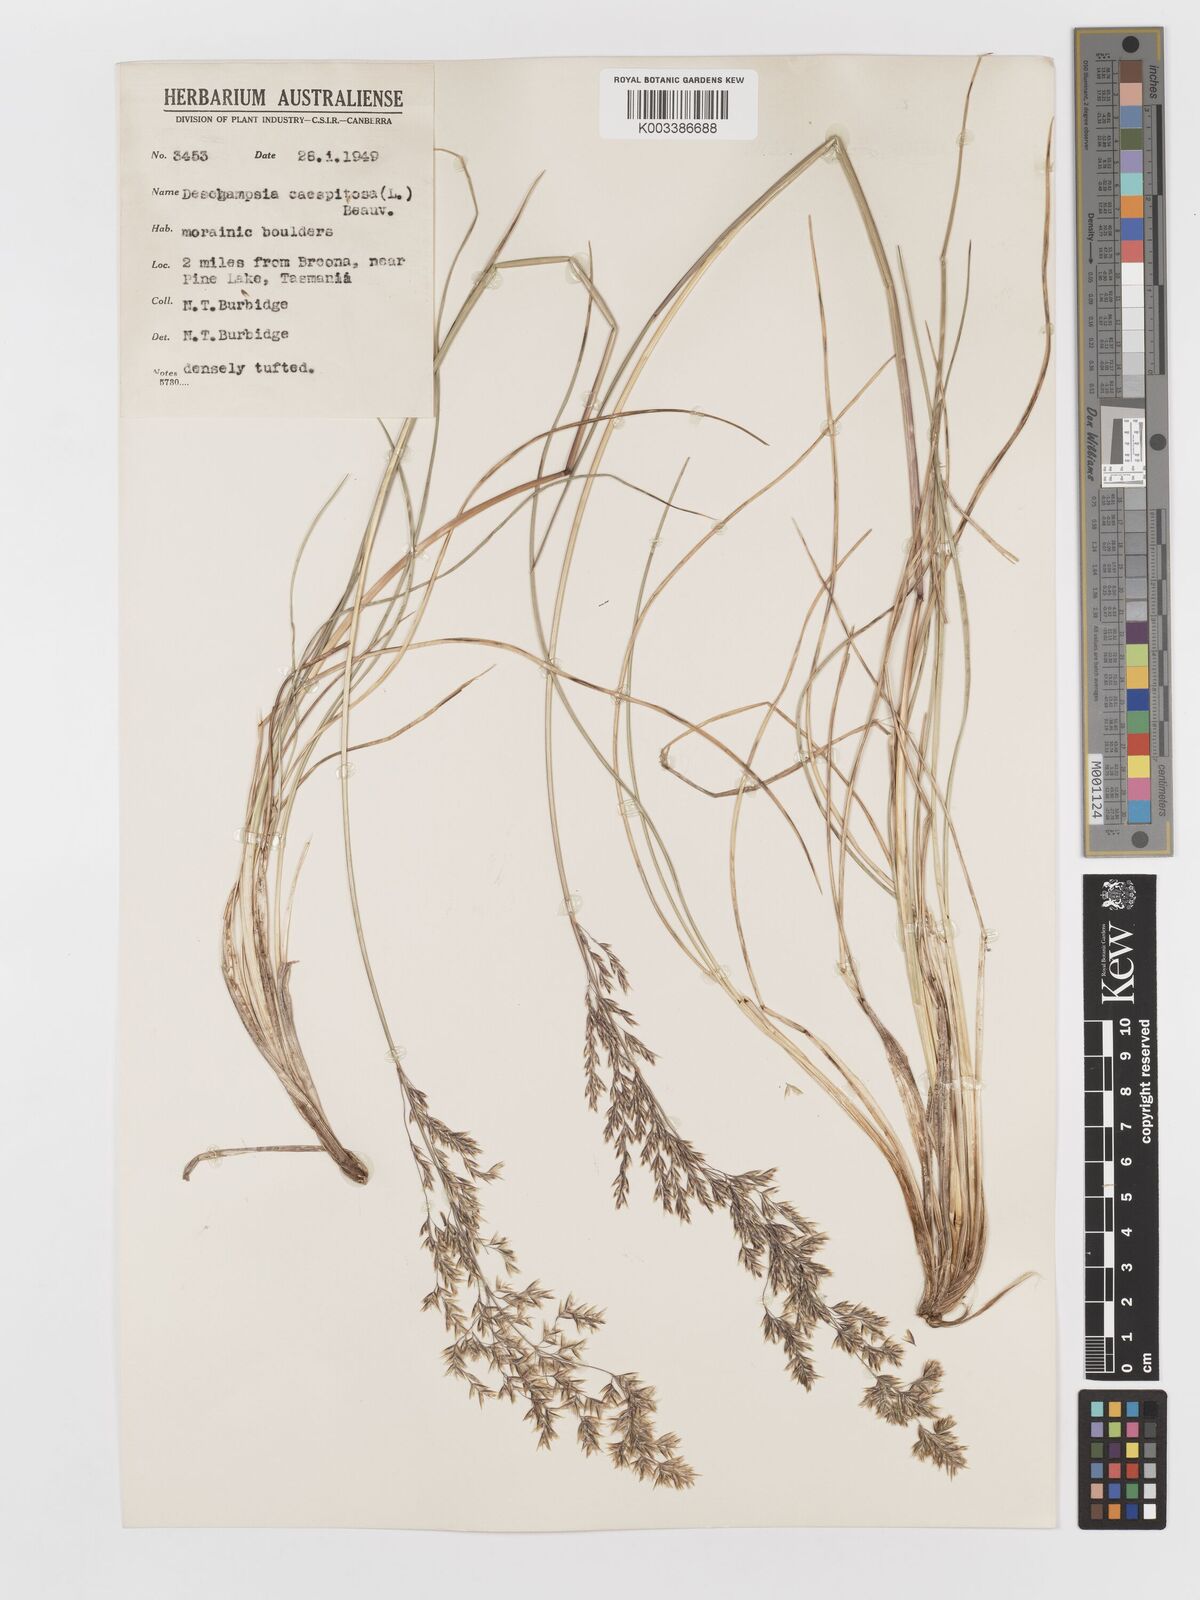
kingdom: Plantae
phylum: Tracheophyta
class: Liliopsida
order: Poales
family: Poaceae
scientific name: Poaceae
